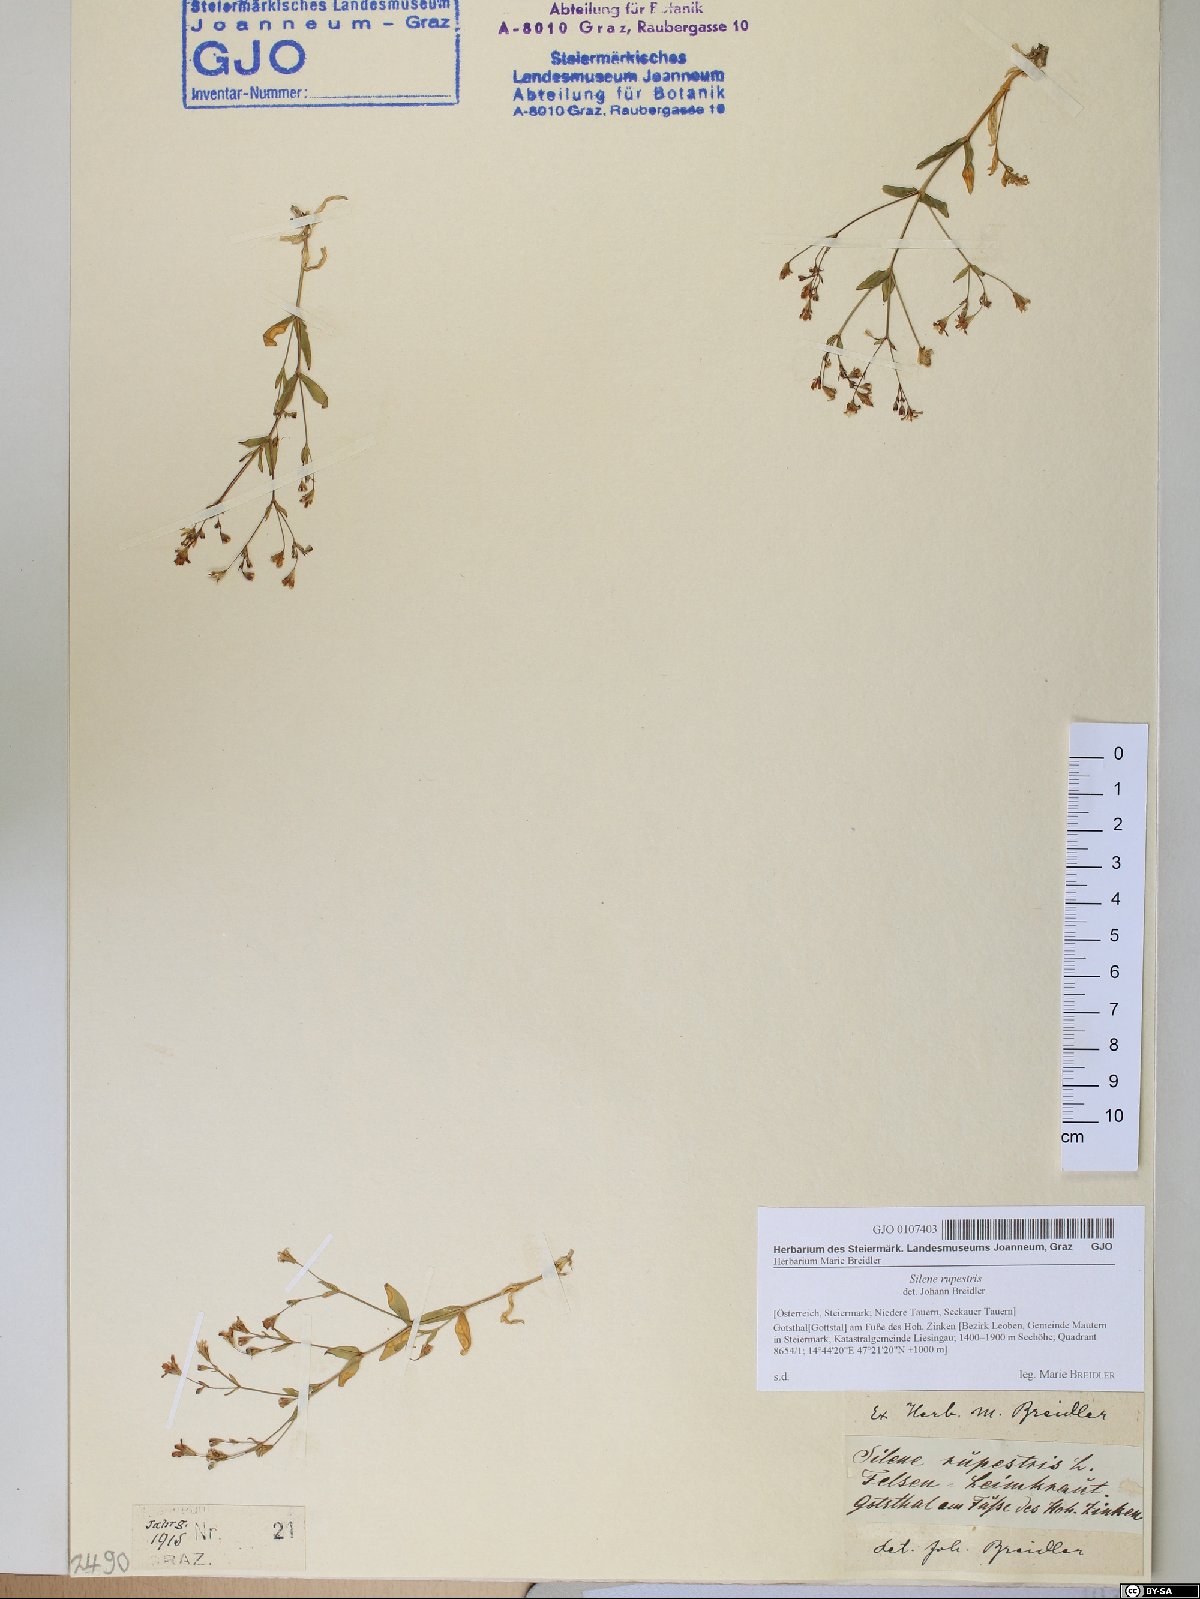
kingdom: Plantae
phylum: Tracheophyta
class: Magnoliopsida
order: Caryophyllales
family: Caryophyllaceae
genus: Atocion
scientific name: Atocion rupestre
